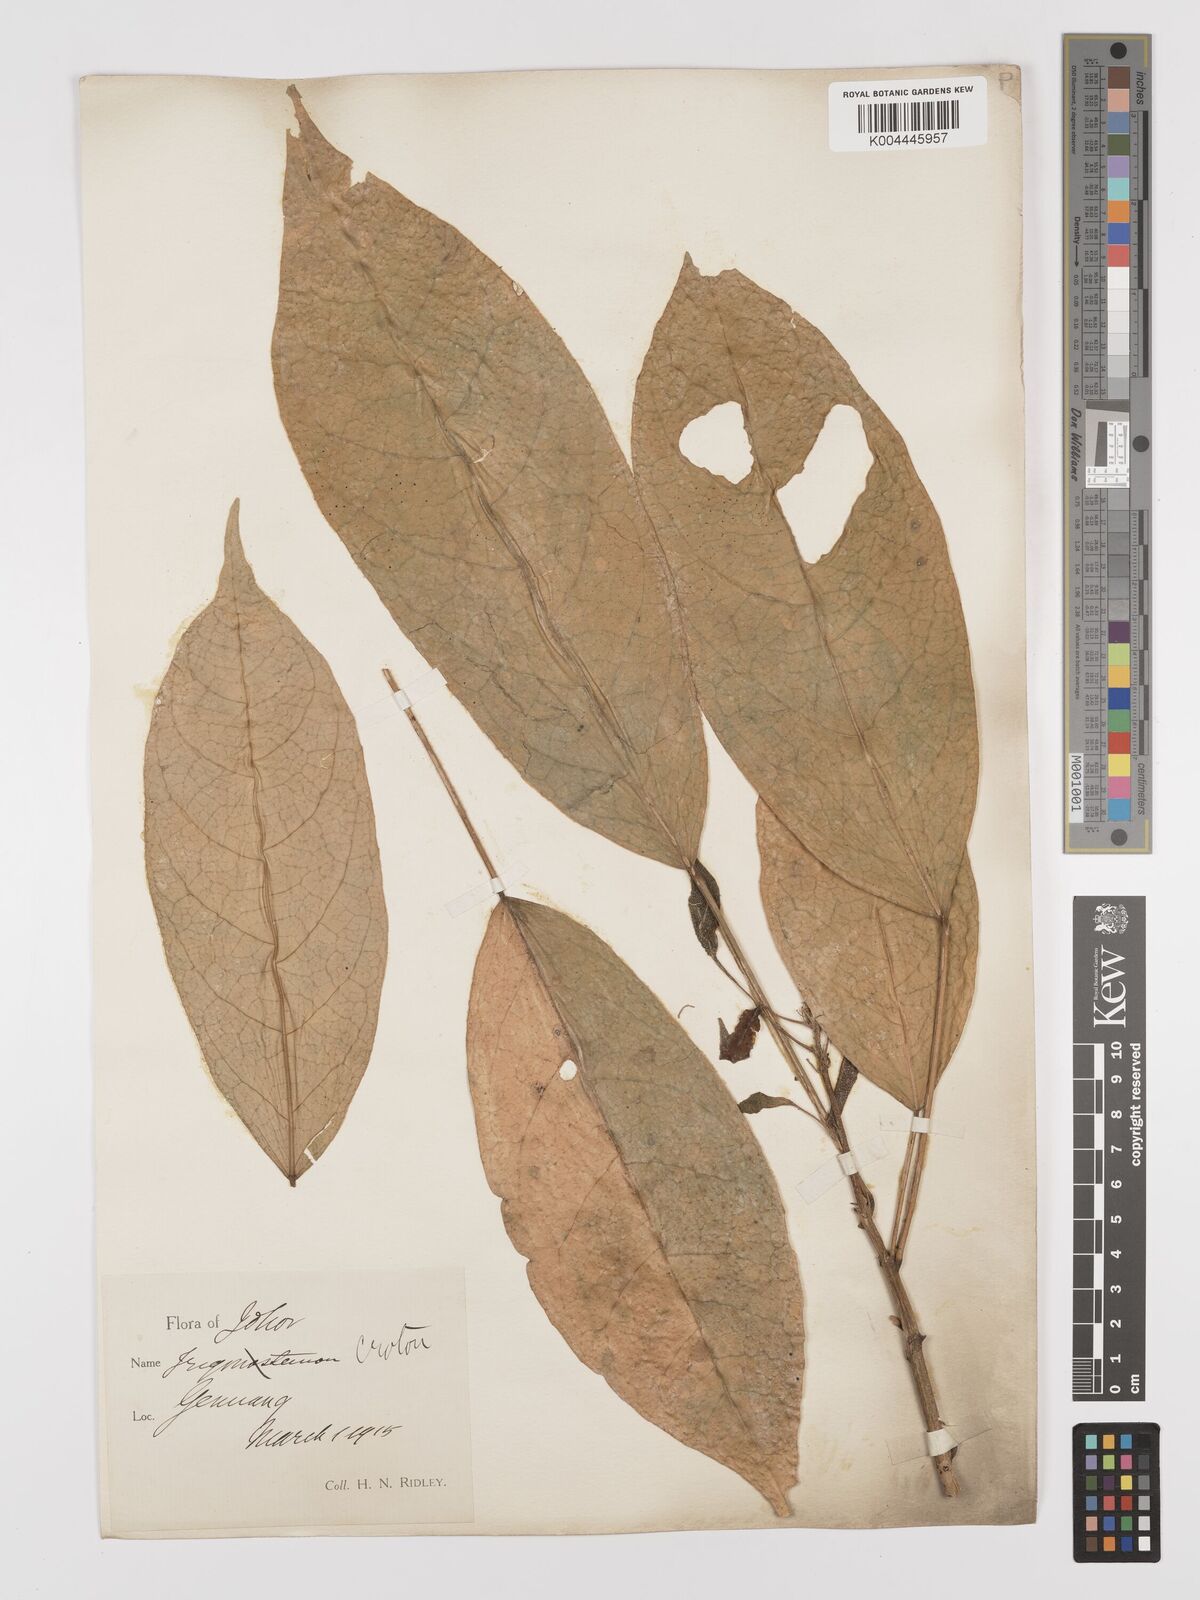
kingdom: Plantae
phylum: Tracheophyta
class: Magnoliopsida
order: Malpighiales
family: Euphorbiaceae
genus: Croton
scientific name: Croton griffithii
